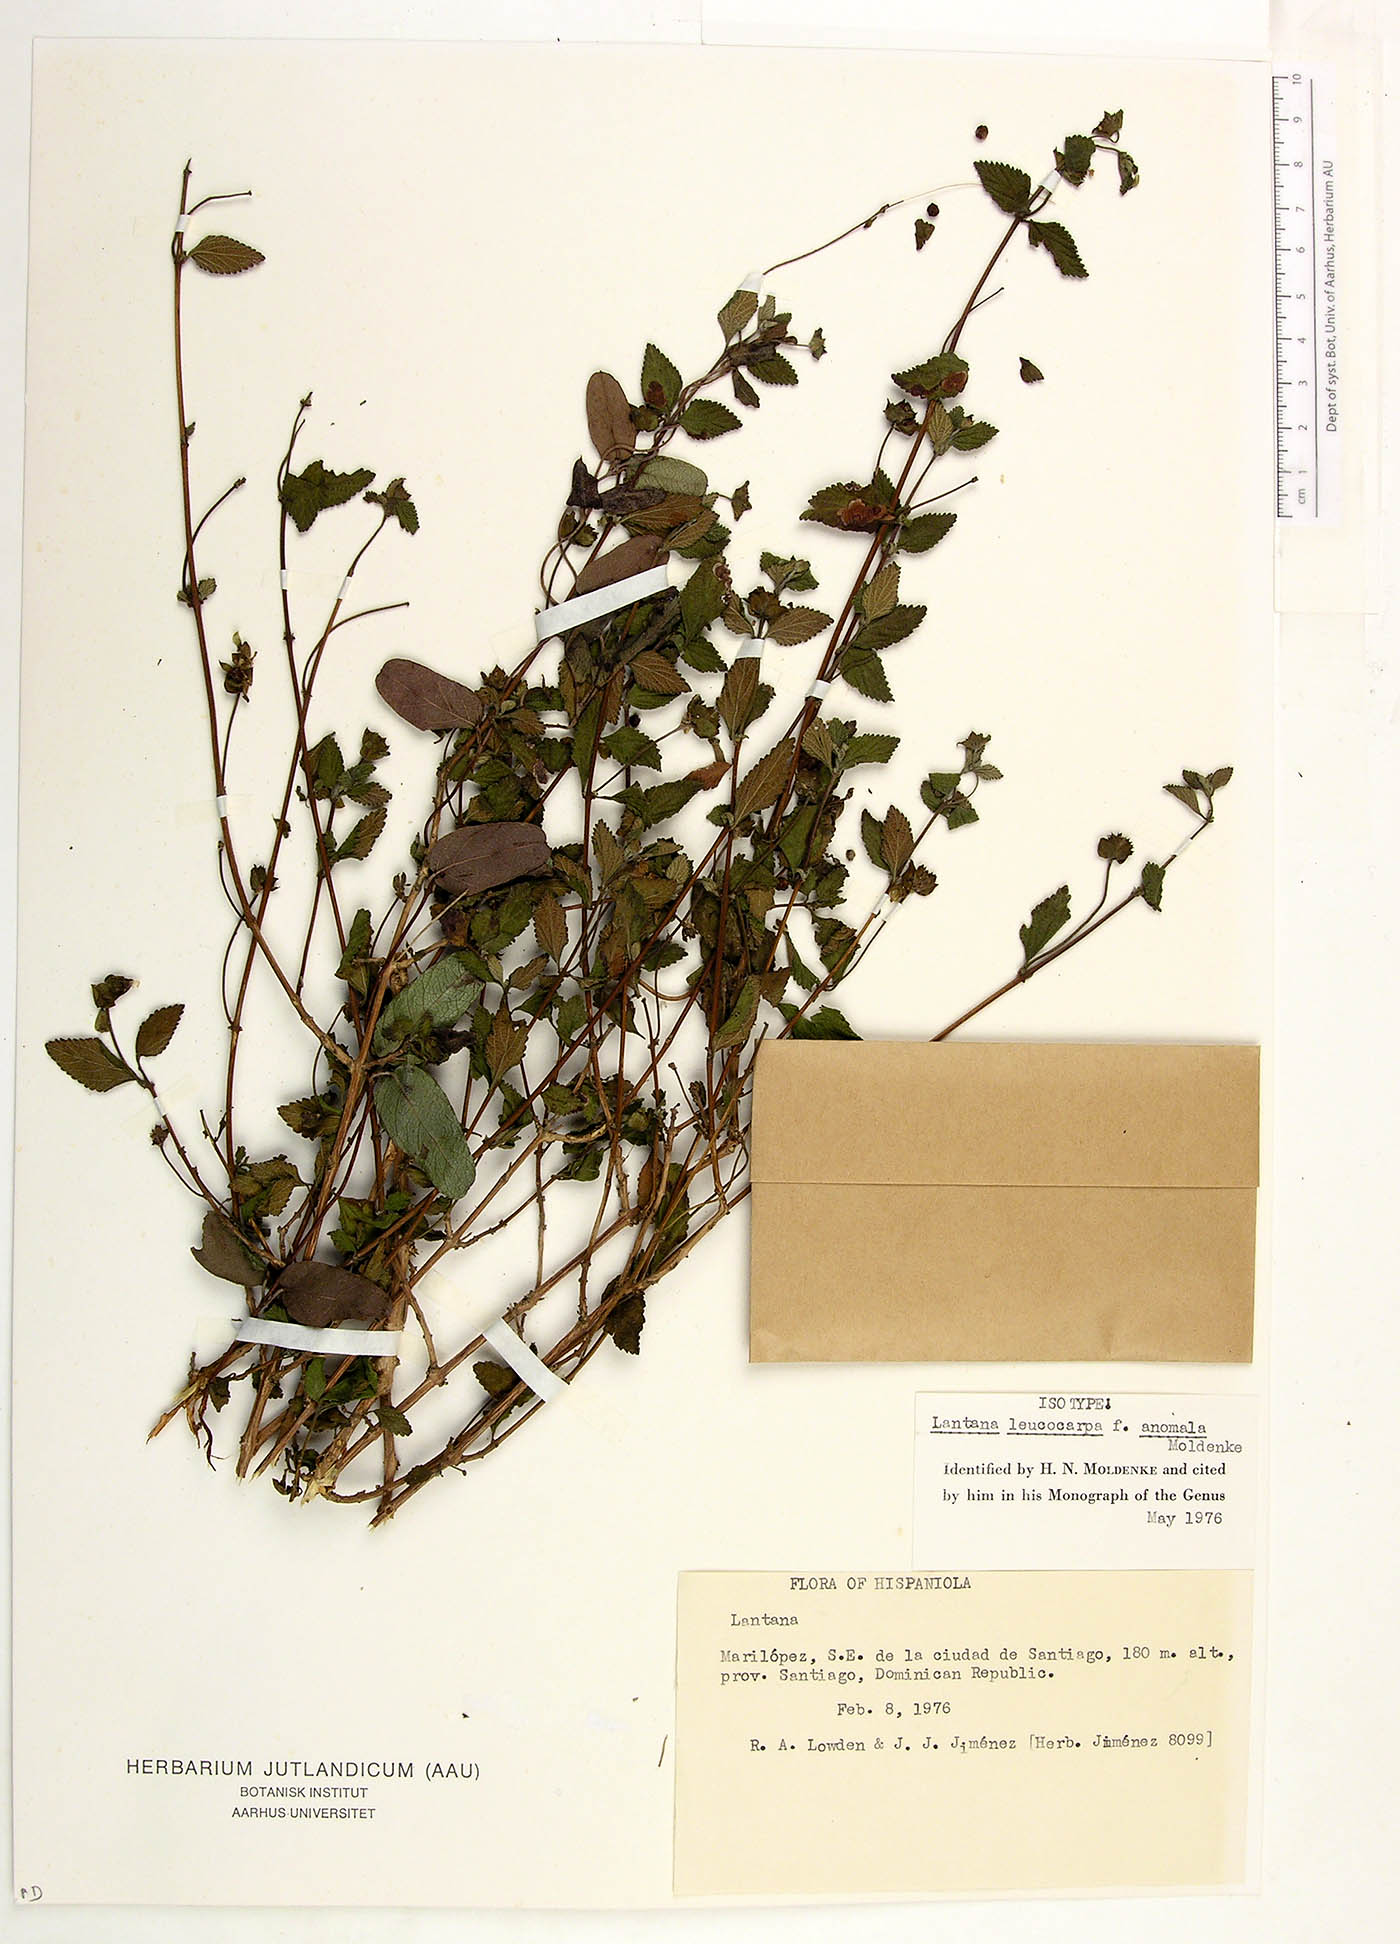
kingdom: Plantae
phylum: Tracheophyta
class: Magnoliopsida
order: Lamiales
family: Verbenaceae
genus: Lantana
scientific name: Lantana leucocarpa
